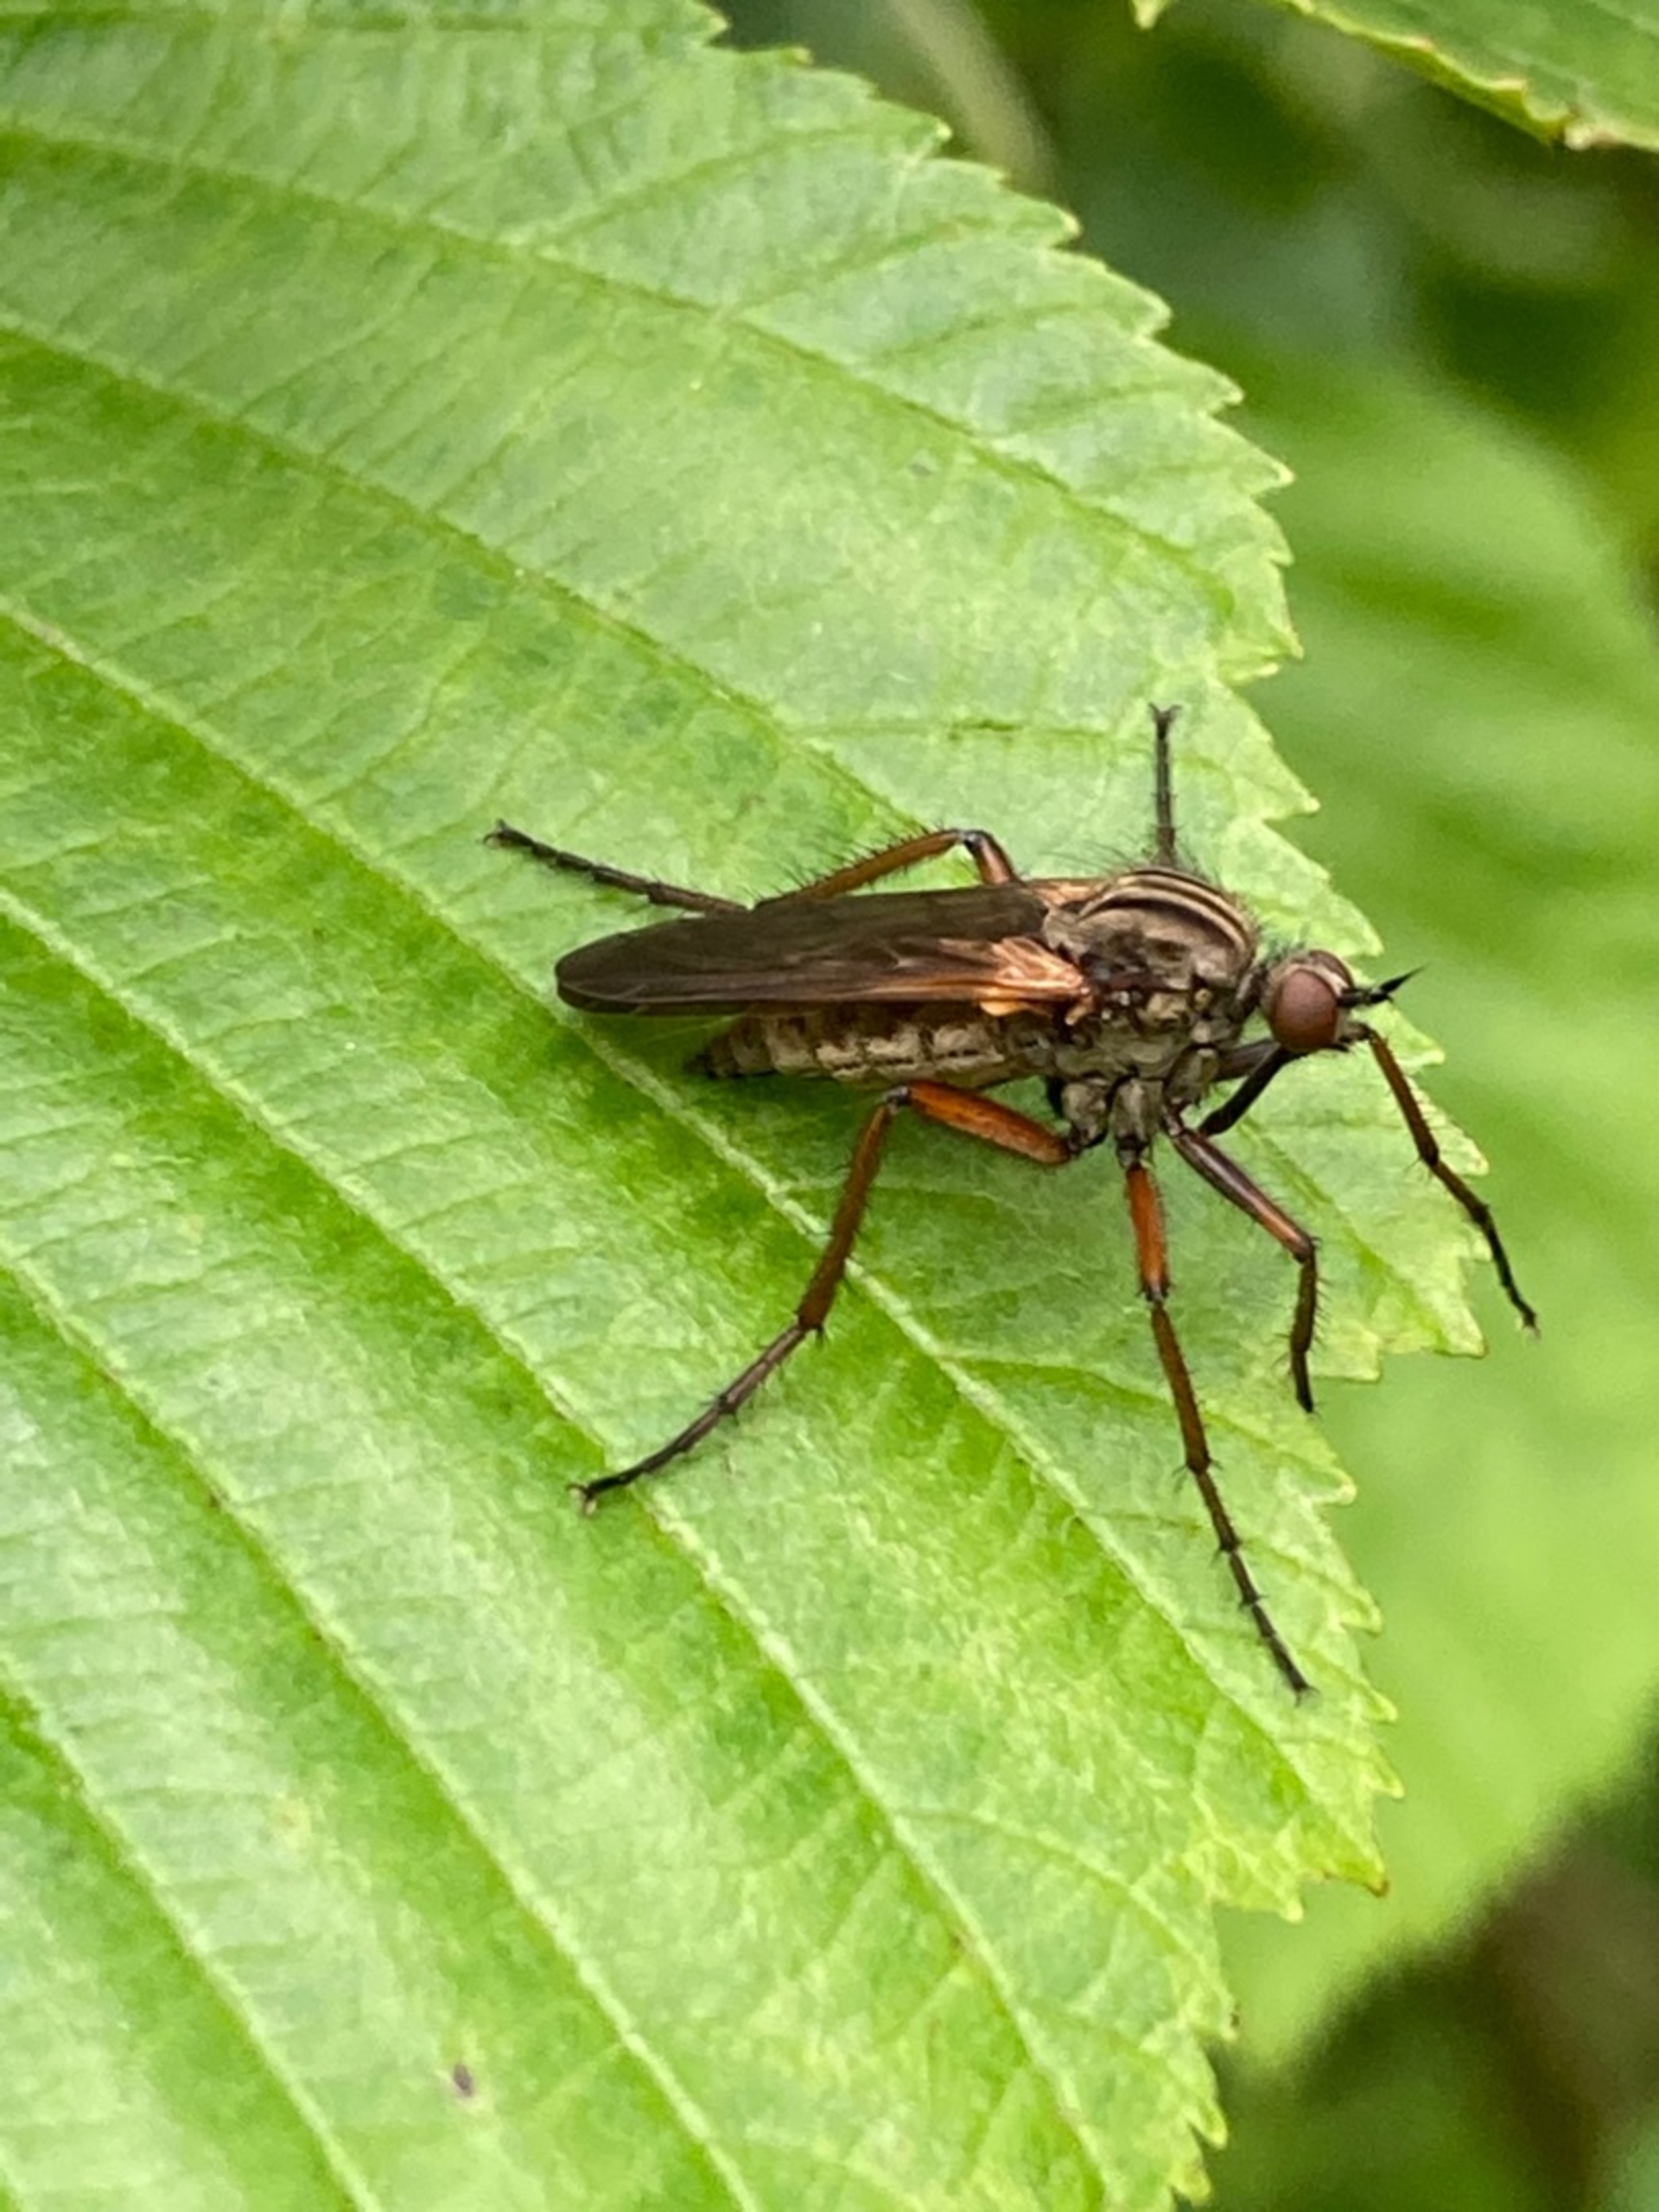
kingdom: Animalia
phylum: Arthropoda
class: Insecta
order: Diptera
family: Empididae
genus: Empis
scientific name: Empis tessellata
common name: Stor danseflue
